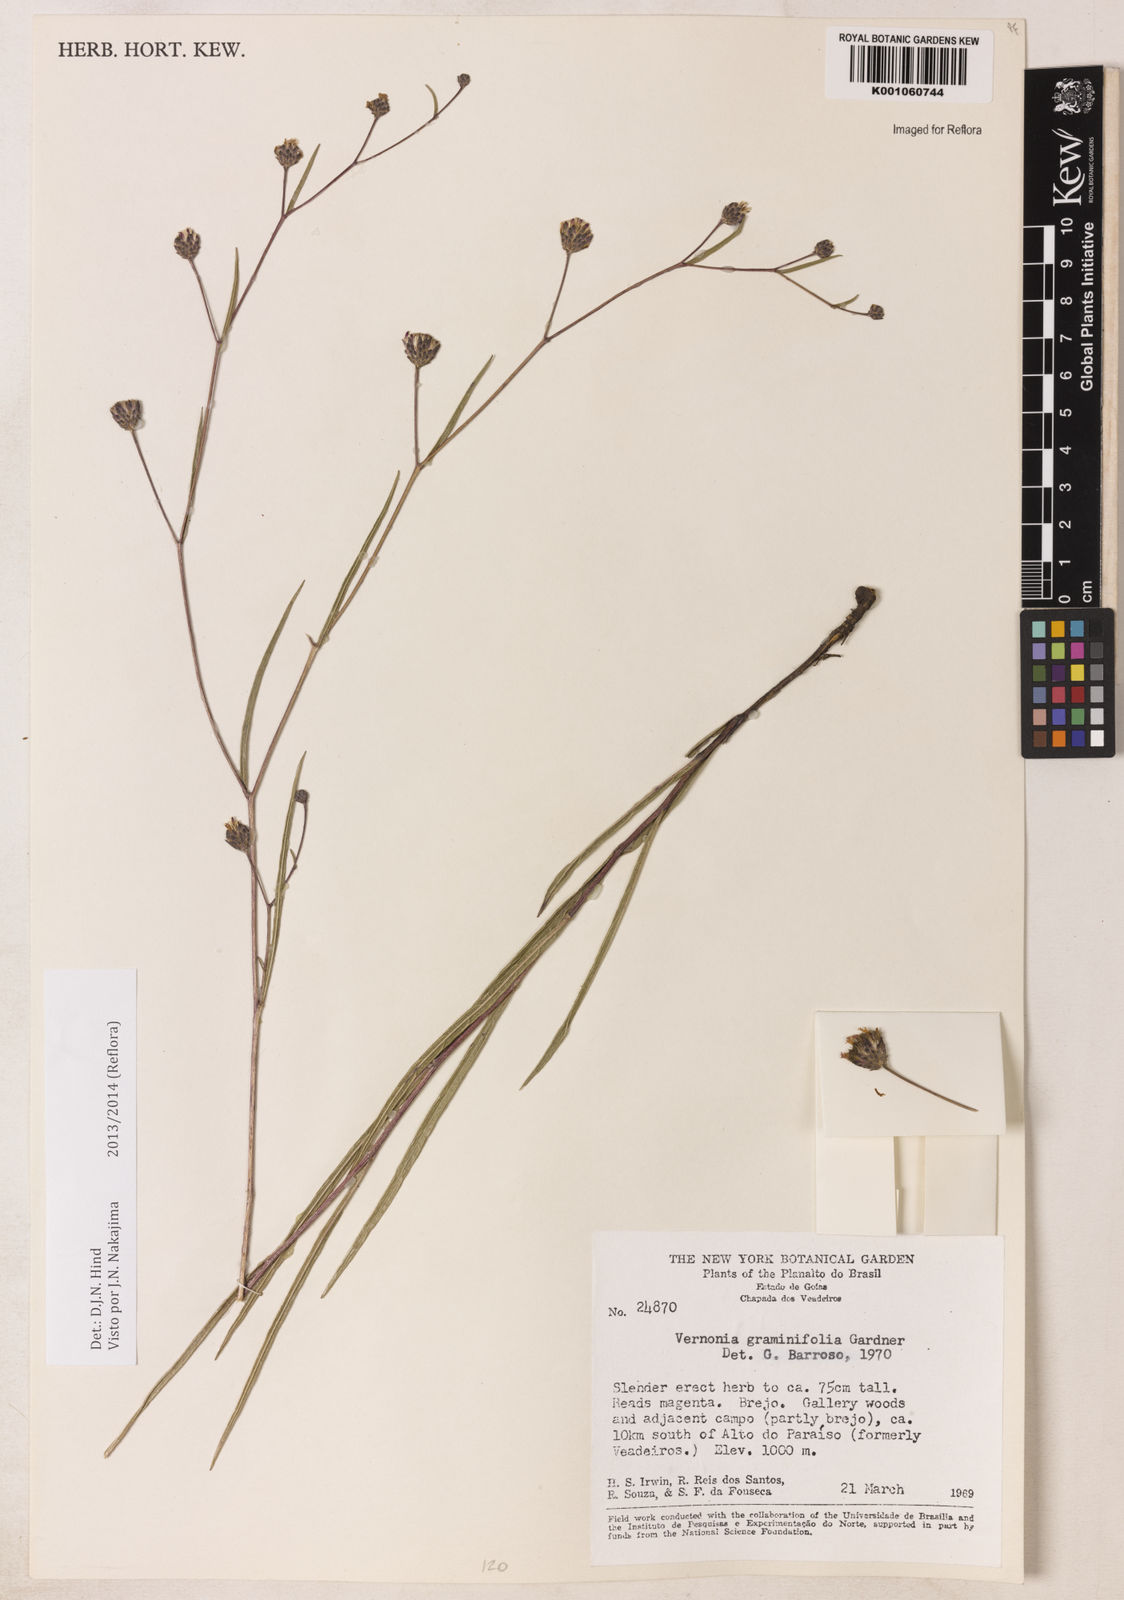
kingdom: Plantae
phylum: Tracheophyta
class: Magnoliopsida
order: Asterales
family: Asteraceae
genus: Lessingianthus
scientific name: Lessingianthus graminifolius
